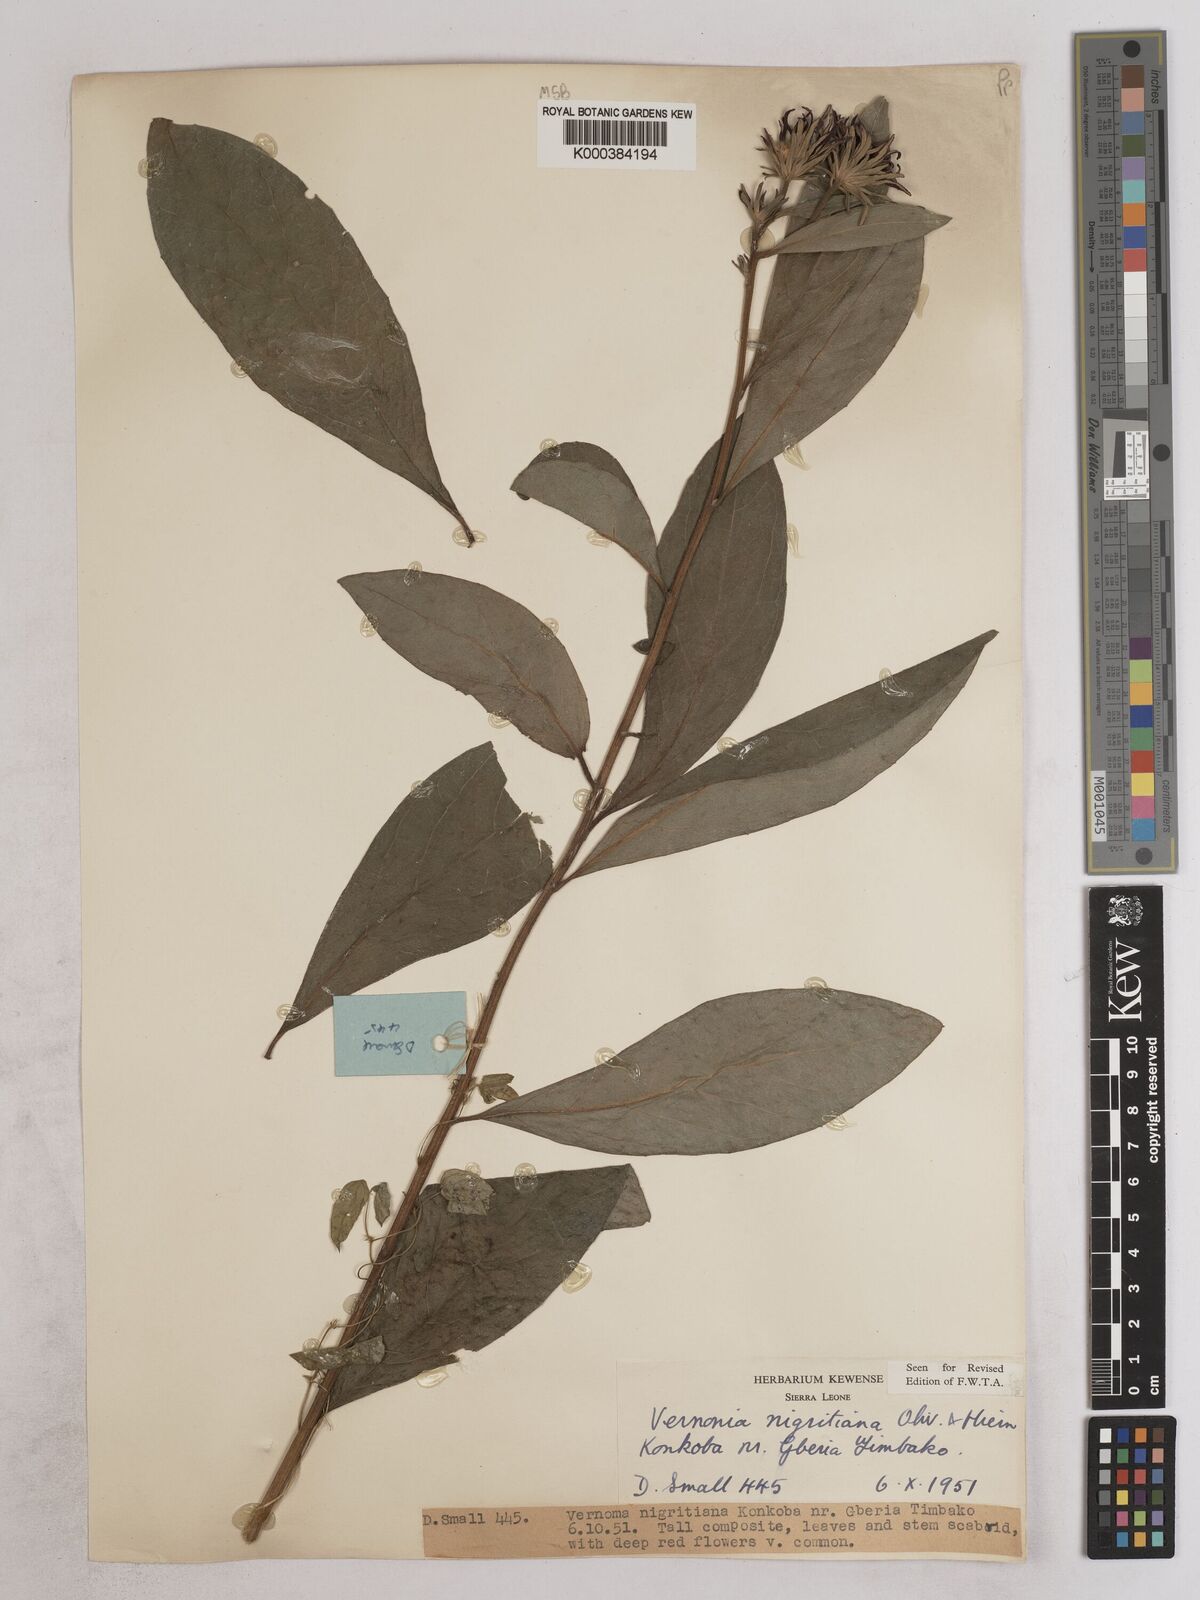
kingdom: Plantae
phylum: Tracheophyta
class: Magnoliopsida
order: Asterales
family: Asteraceae
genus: Linzia
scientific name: Linzia nigritiana
